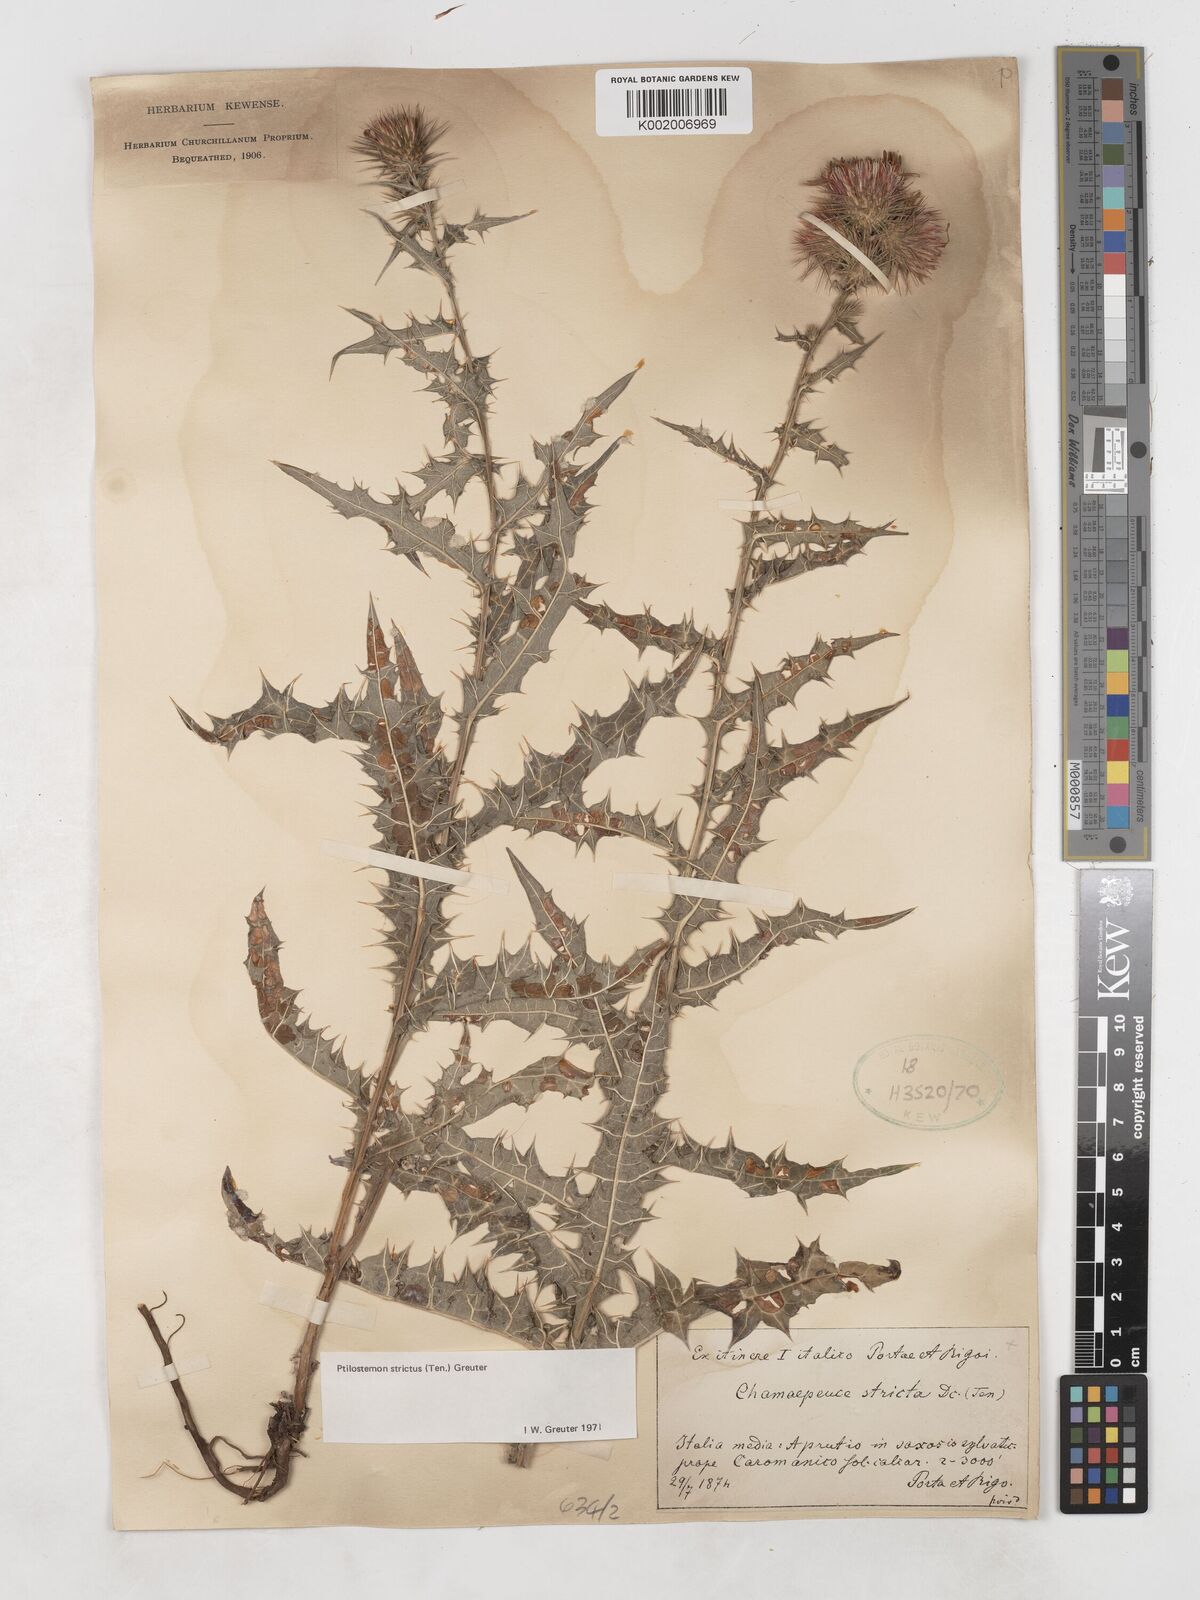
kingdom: Plantae
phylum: Tracheophyta
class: Magnoliopsida
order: Asterales
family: Asteraceae
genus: Ptilostemon
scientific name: Ptilostemon strictus
